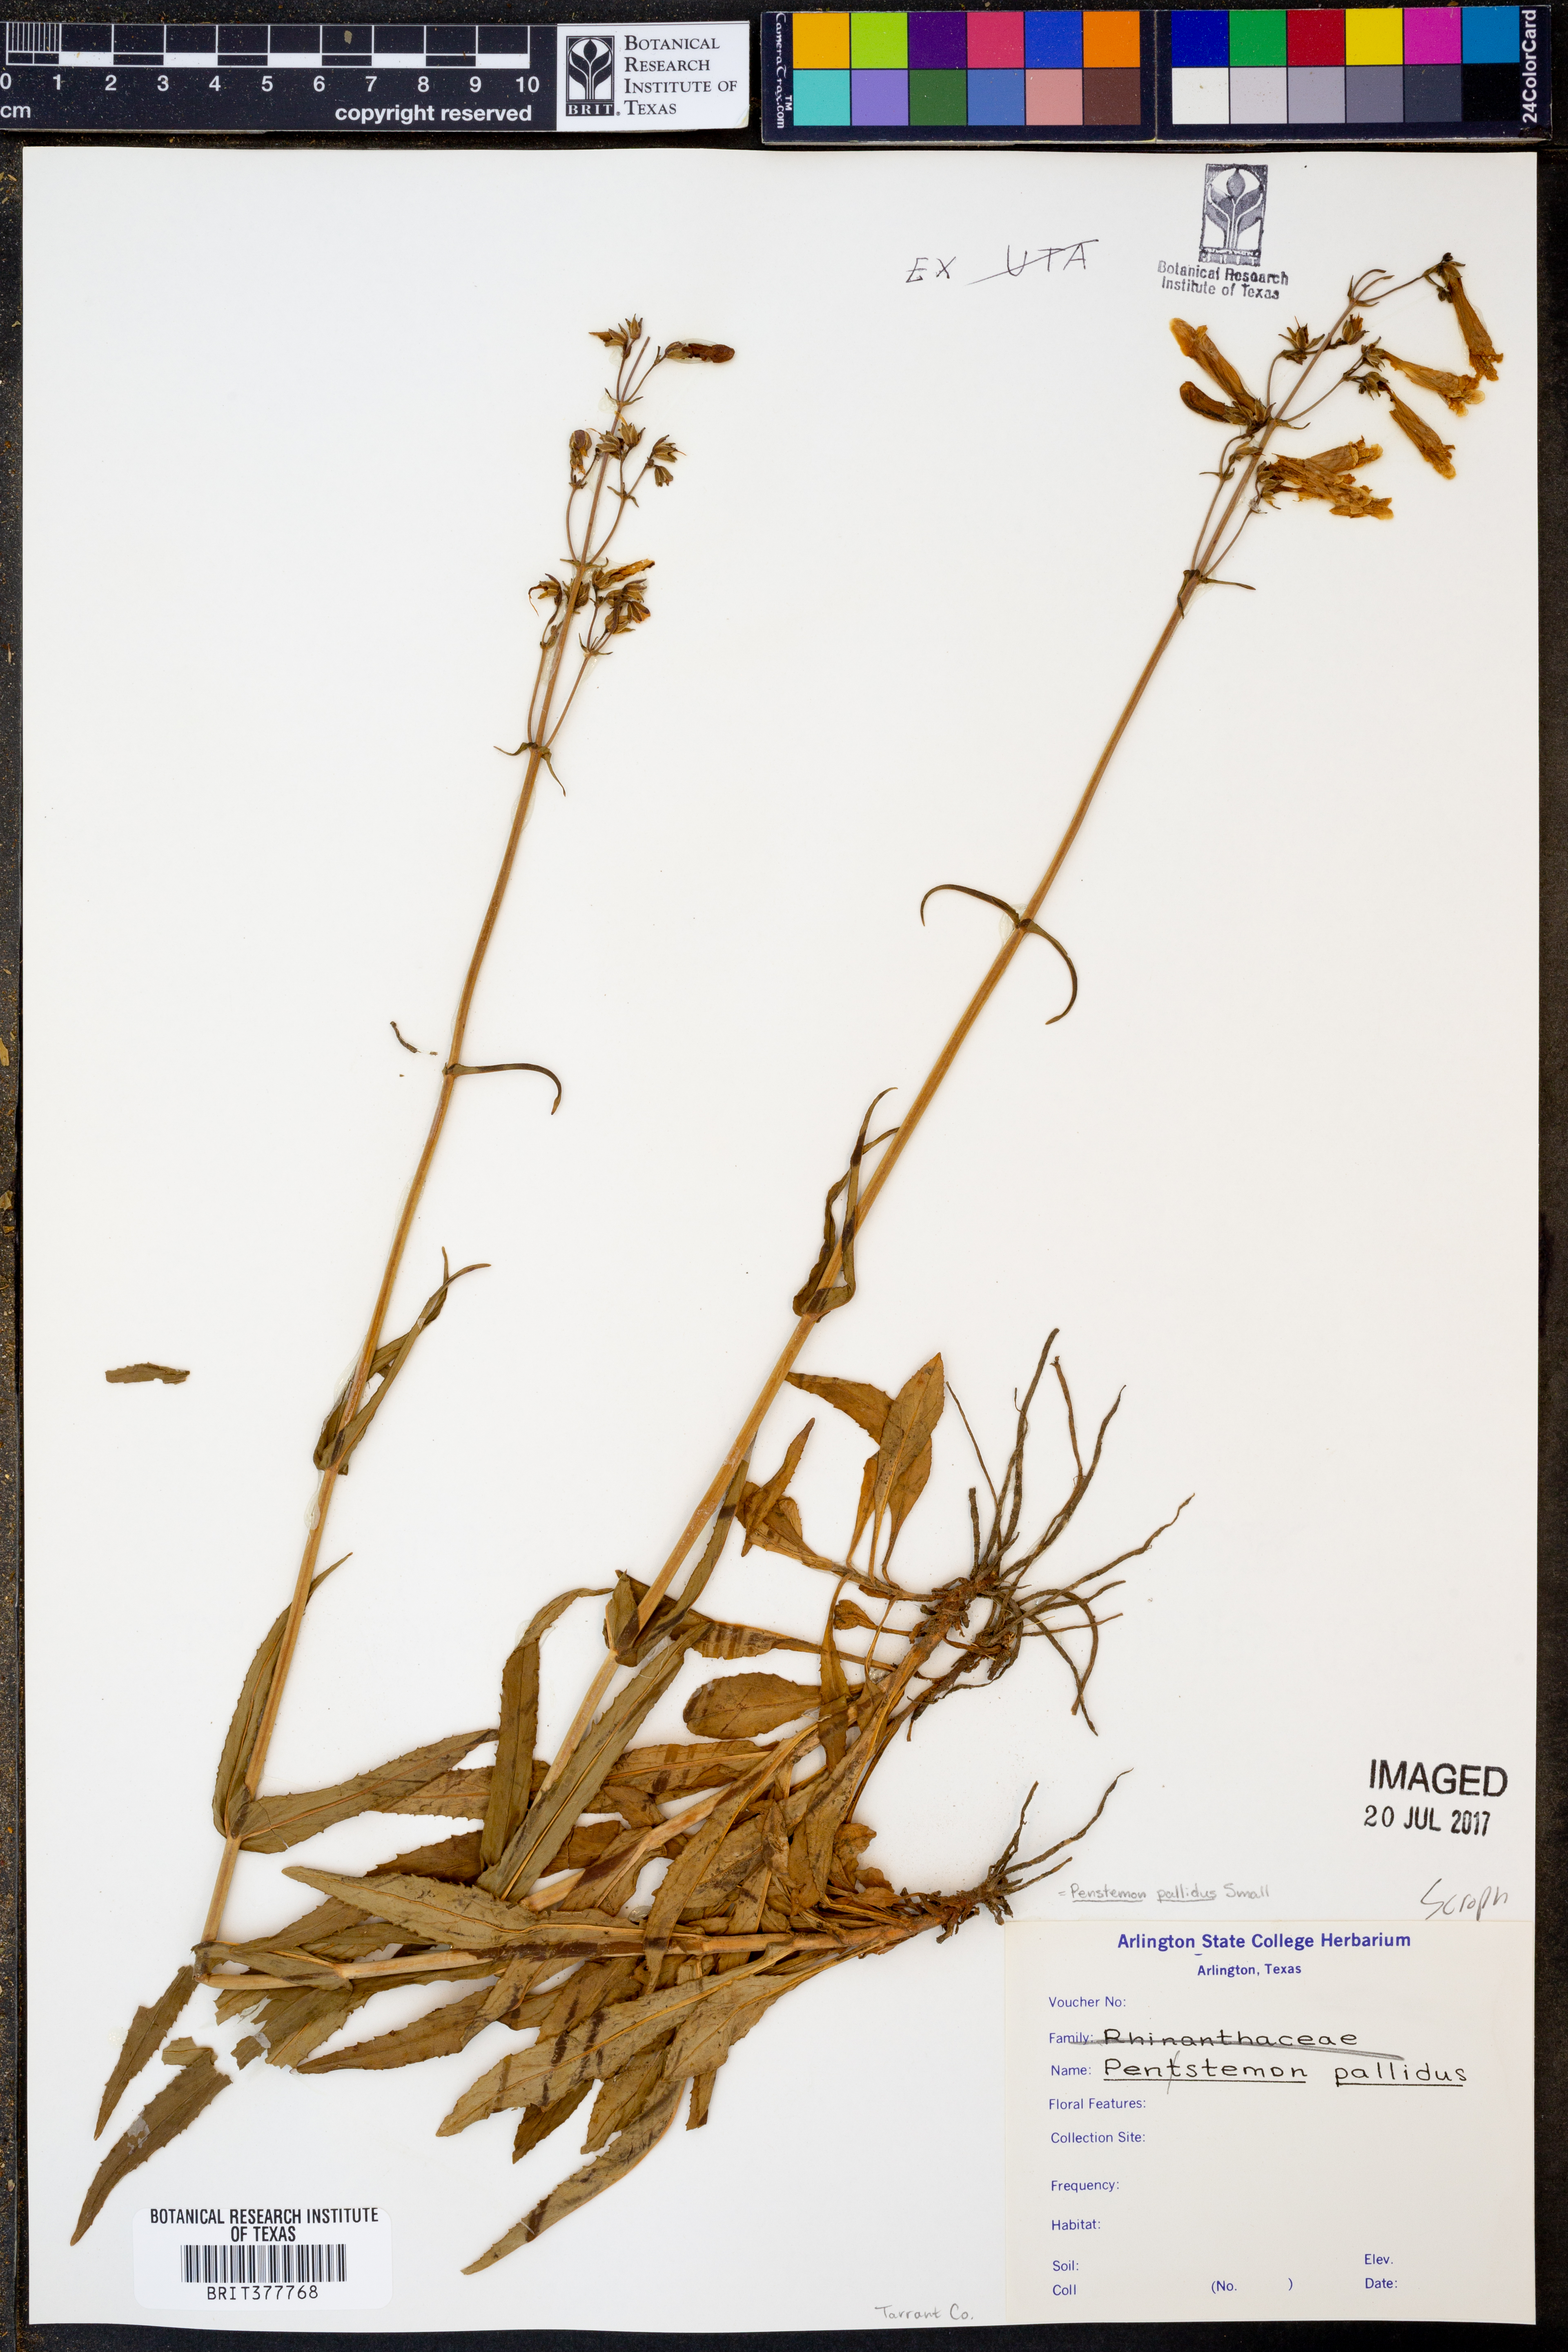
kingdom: Plantae
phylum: Tracheophyta
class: Magnoliopsida
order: Lamiales
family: Plantaginaceae
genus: Penstemon
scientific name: Penstemon pallidus
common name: Pale beardtongue
